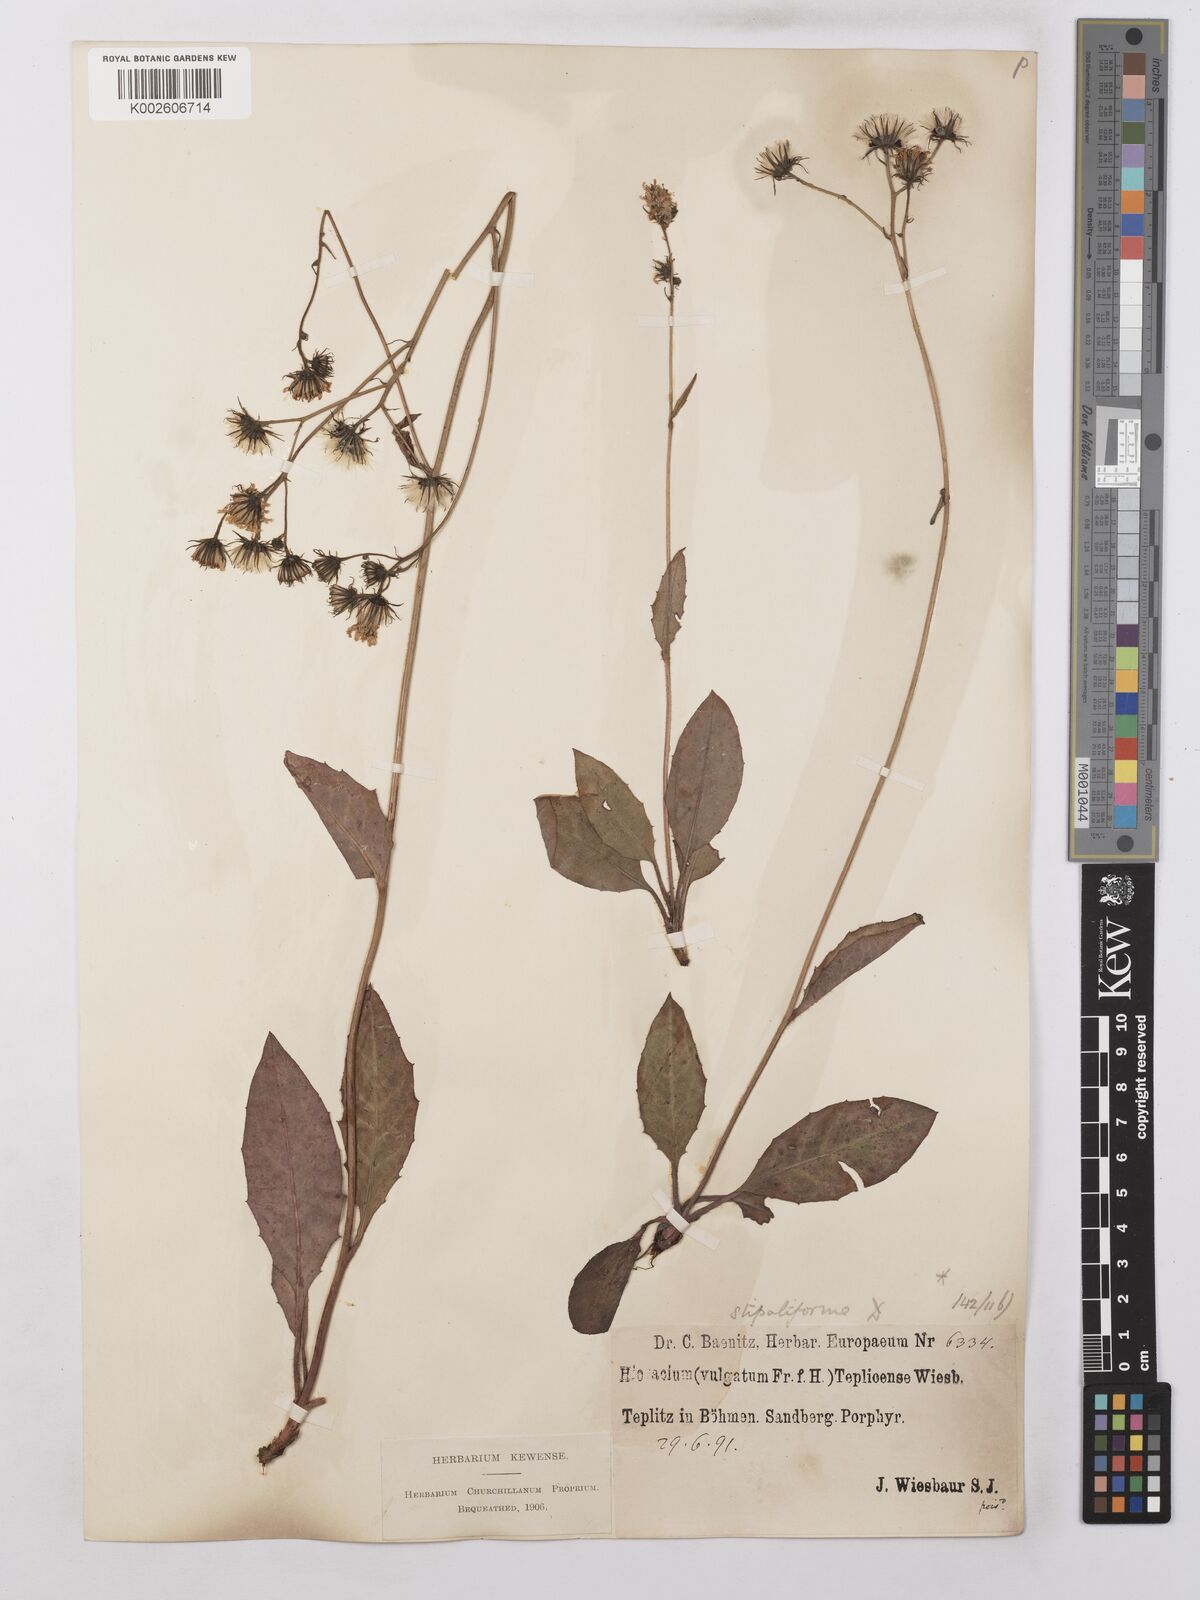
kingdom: Plantae
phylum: Tracheophyta
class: Magnoliopsida
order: Asterales
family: Asteraceae
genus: Hieracium
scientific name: Hieracium lachenalii
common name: Common hawkweed
